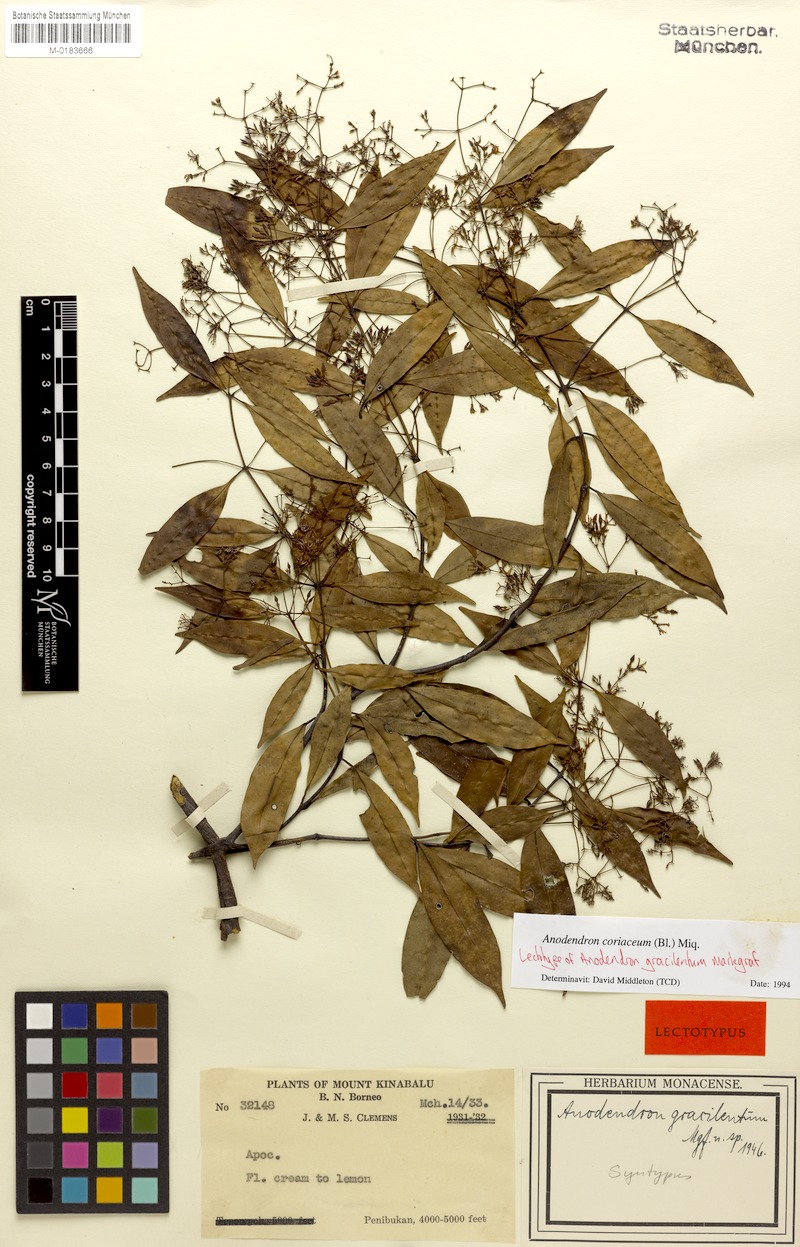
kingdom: Plantae
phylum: Tracheophyta
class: Magnoliopsida
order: Gentianales
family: Apocynaceae
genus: Anodendron
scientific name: Anodendron coriaceum
